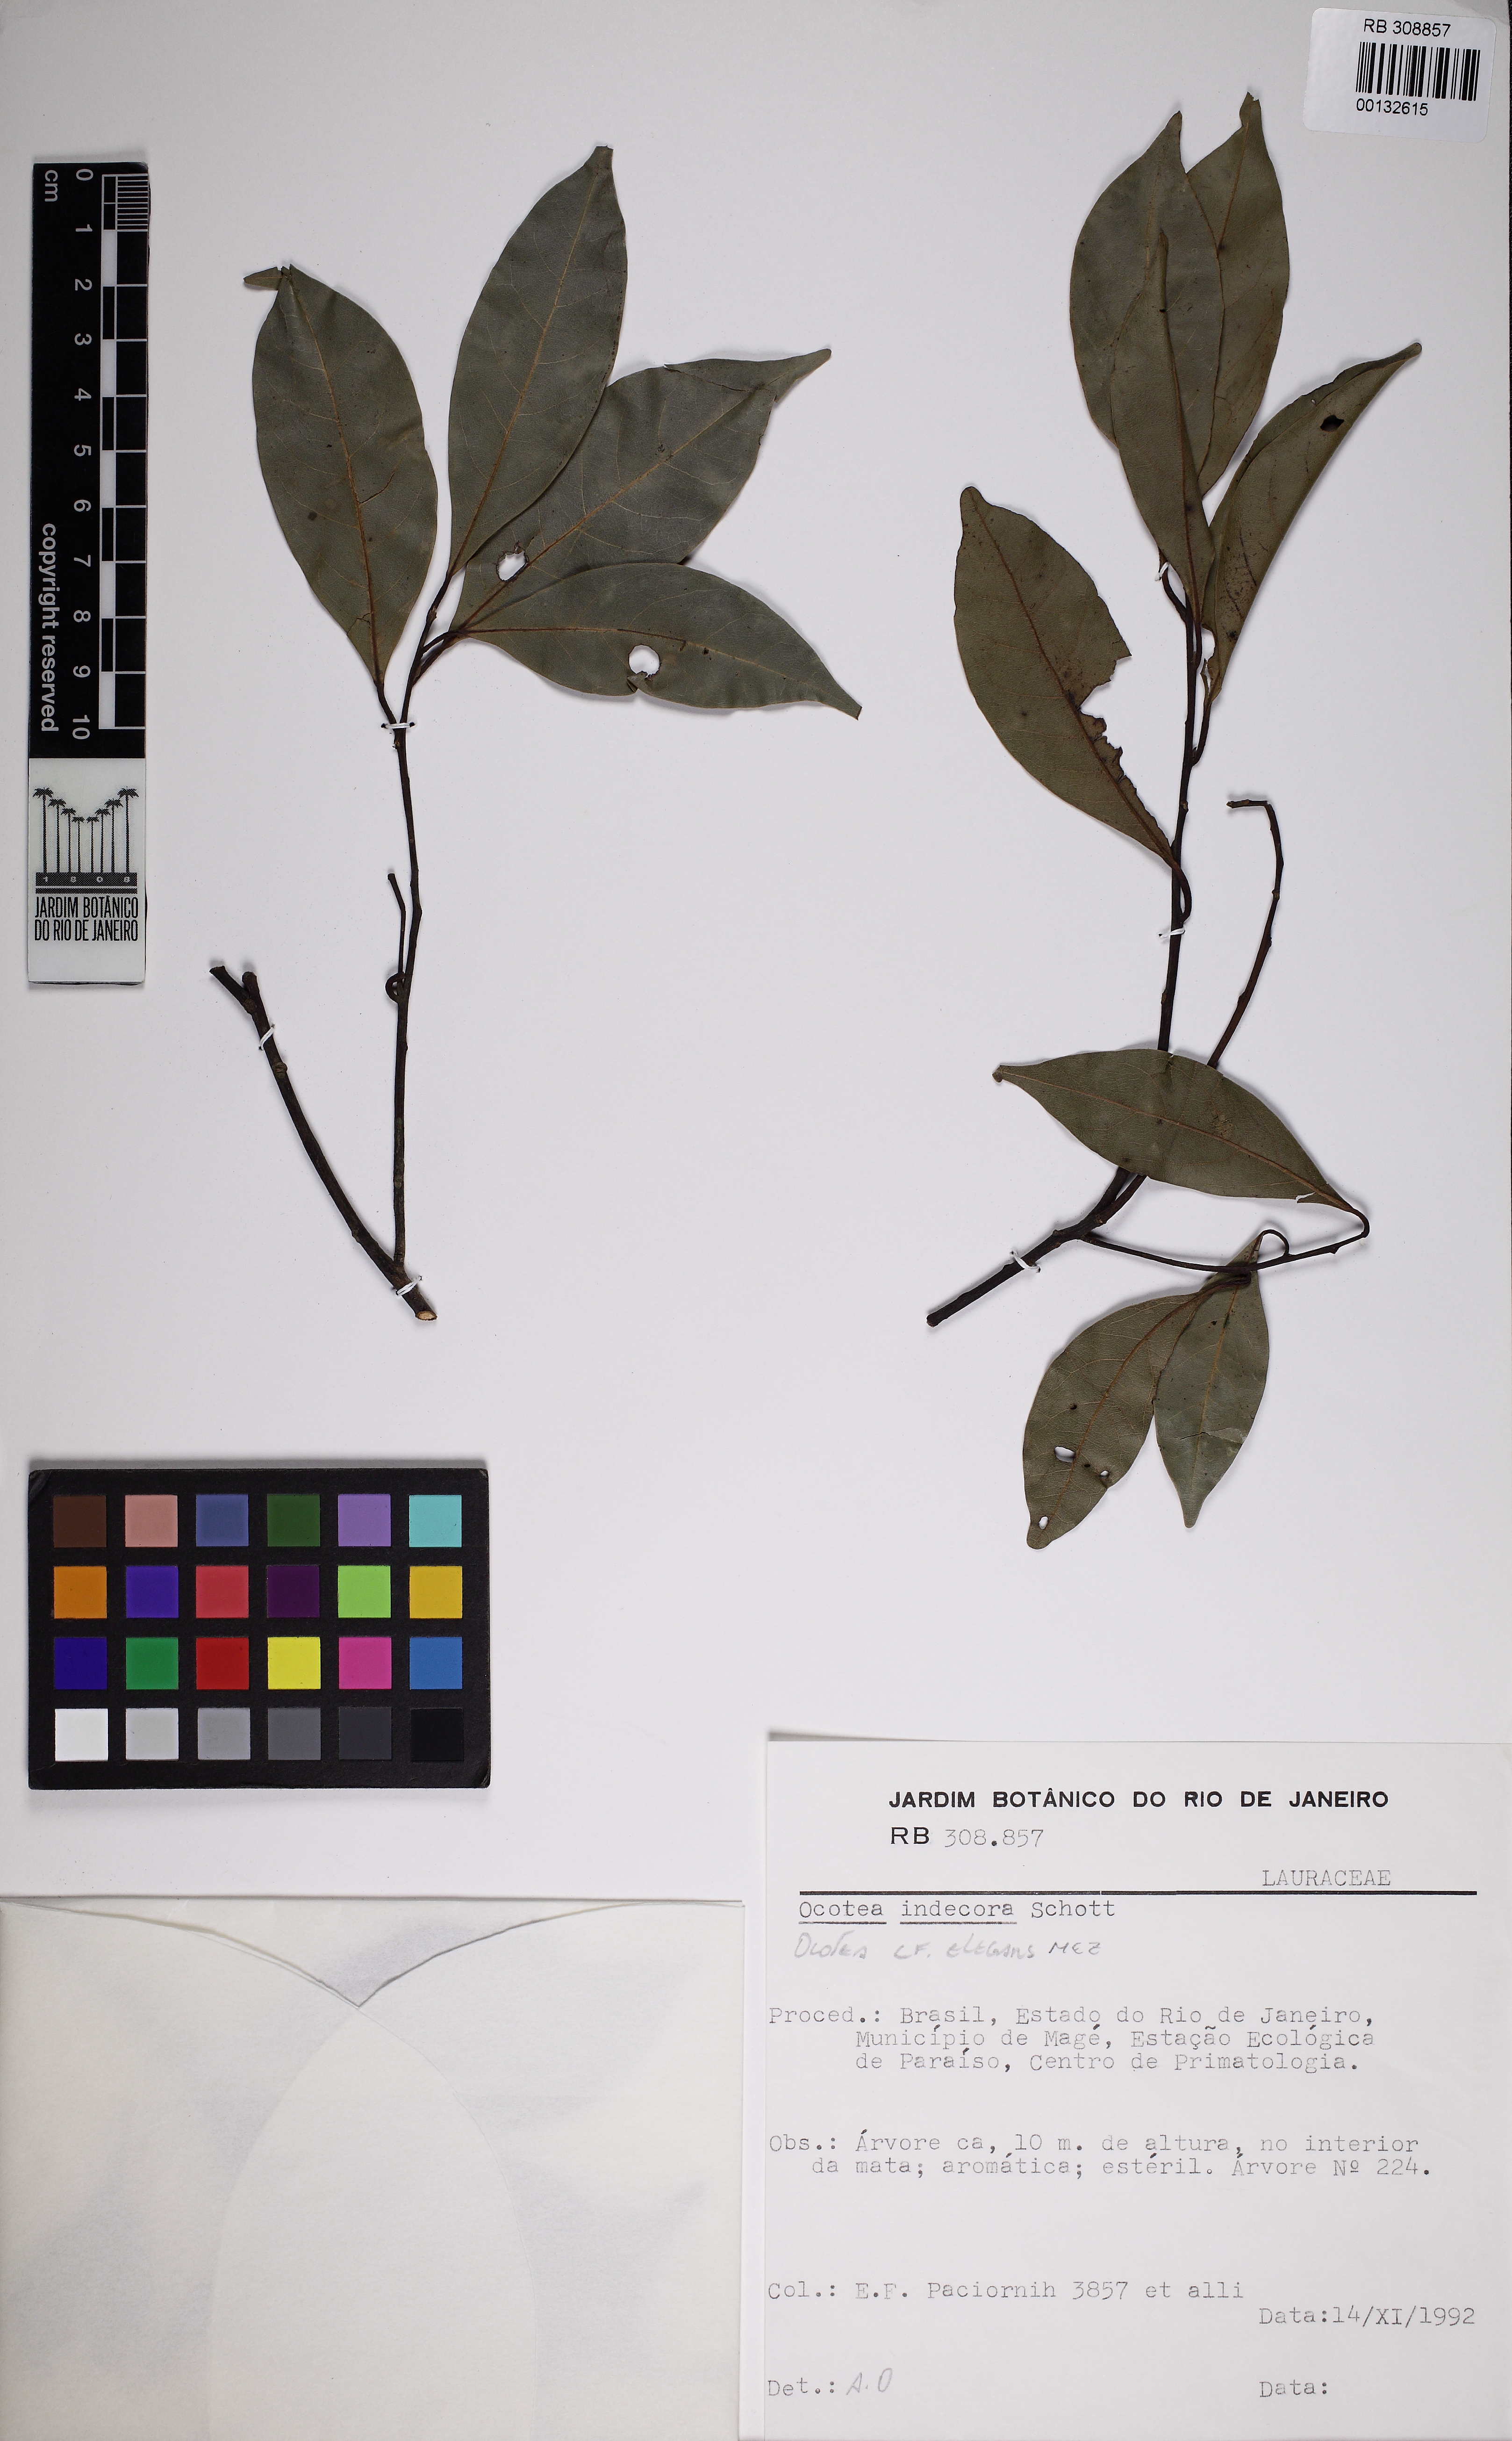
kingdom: Plantae
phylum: Tracheophyta
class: Magnoliopsida
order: Laurales
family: Lauraceae
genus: Ocotea
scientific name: Ocotea elegans
